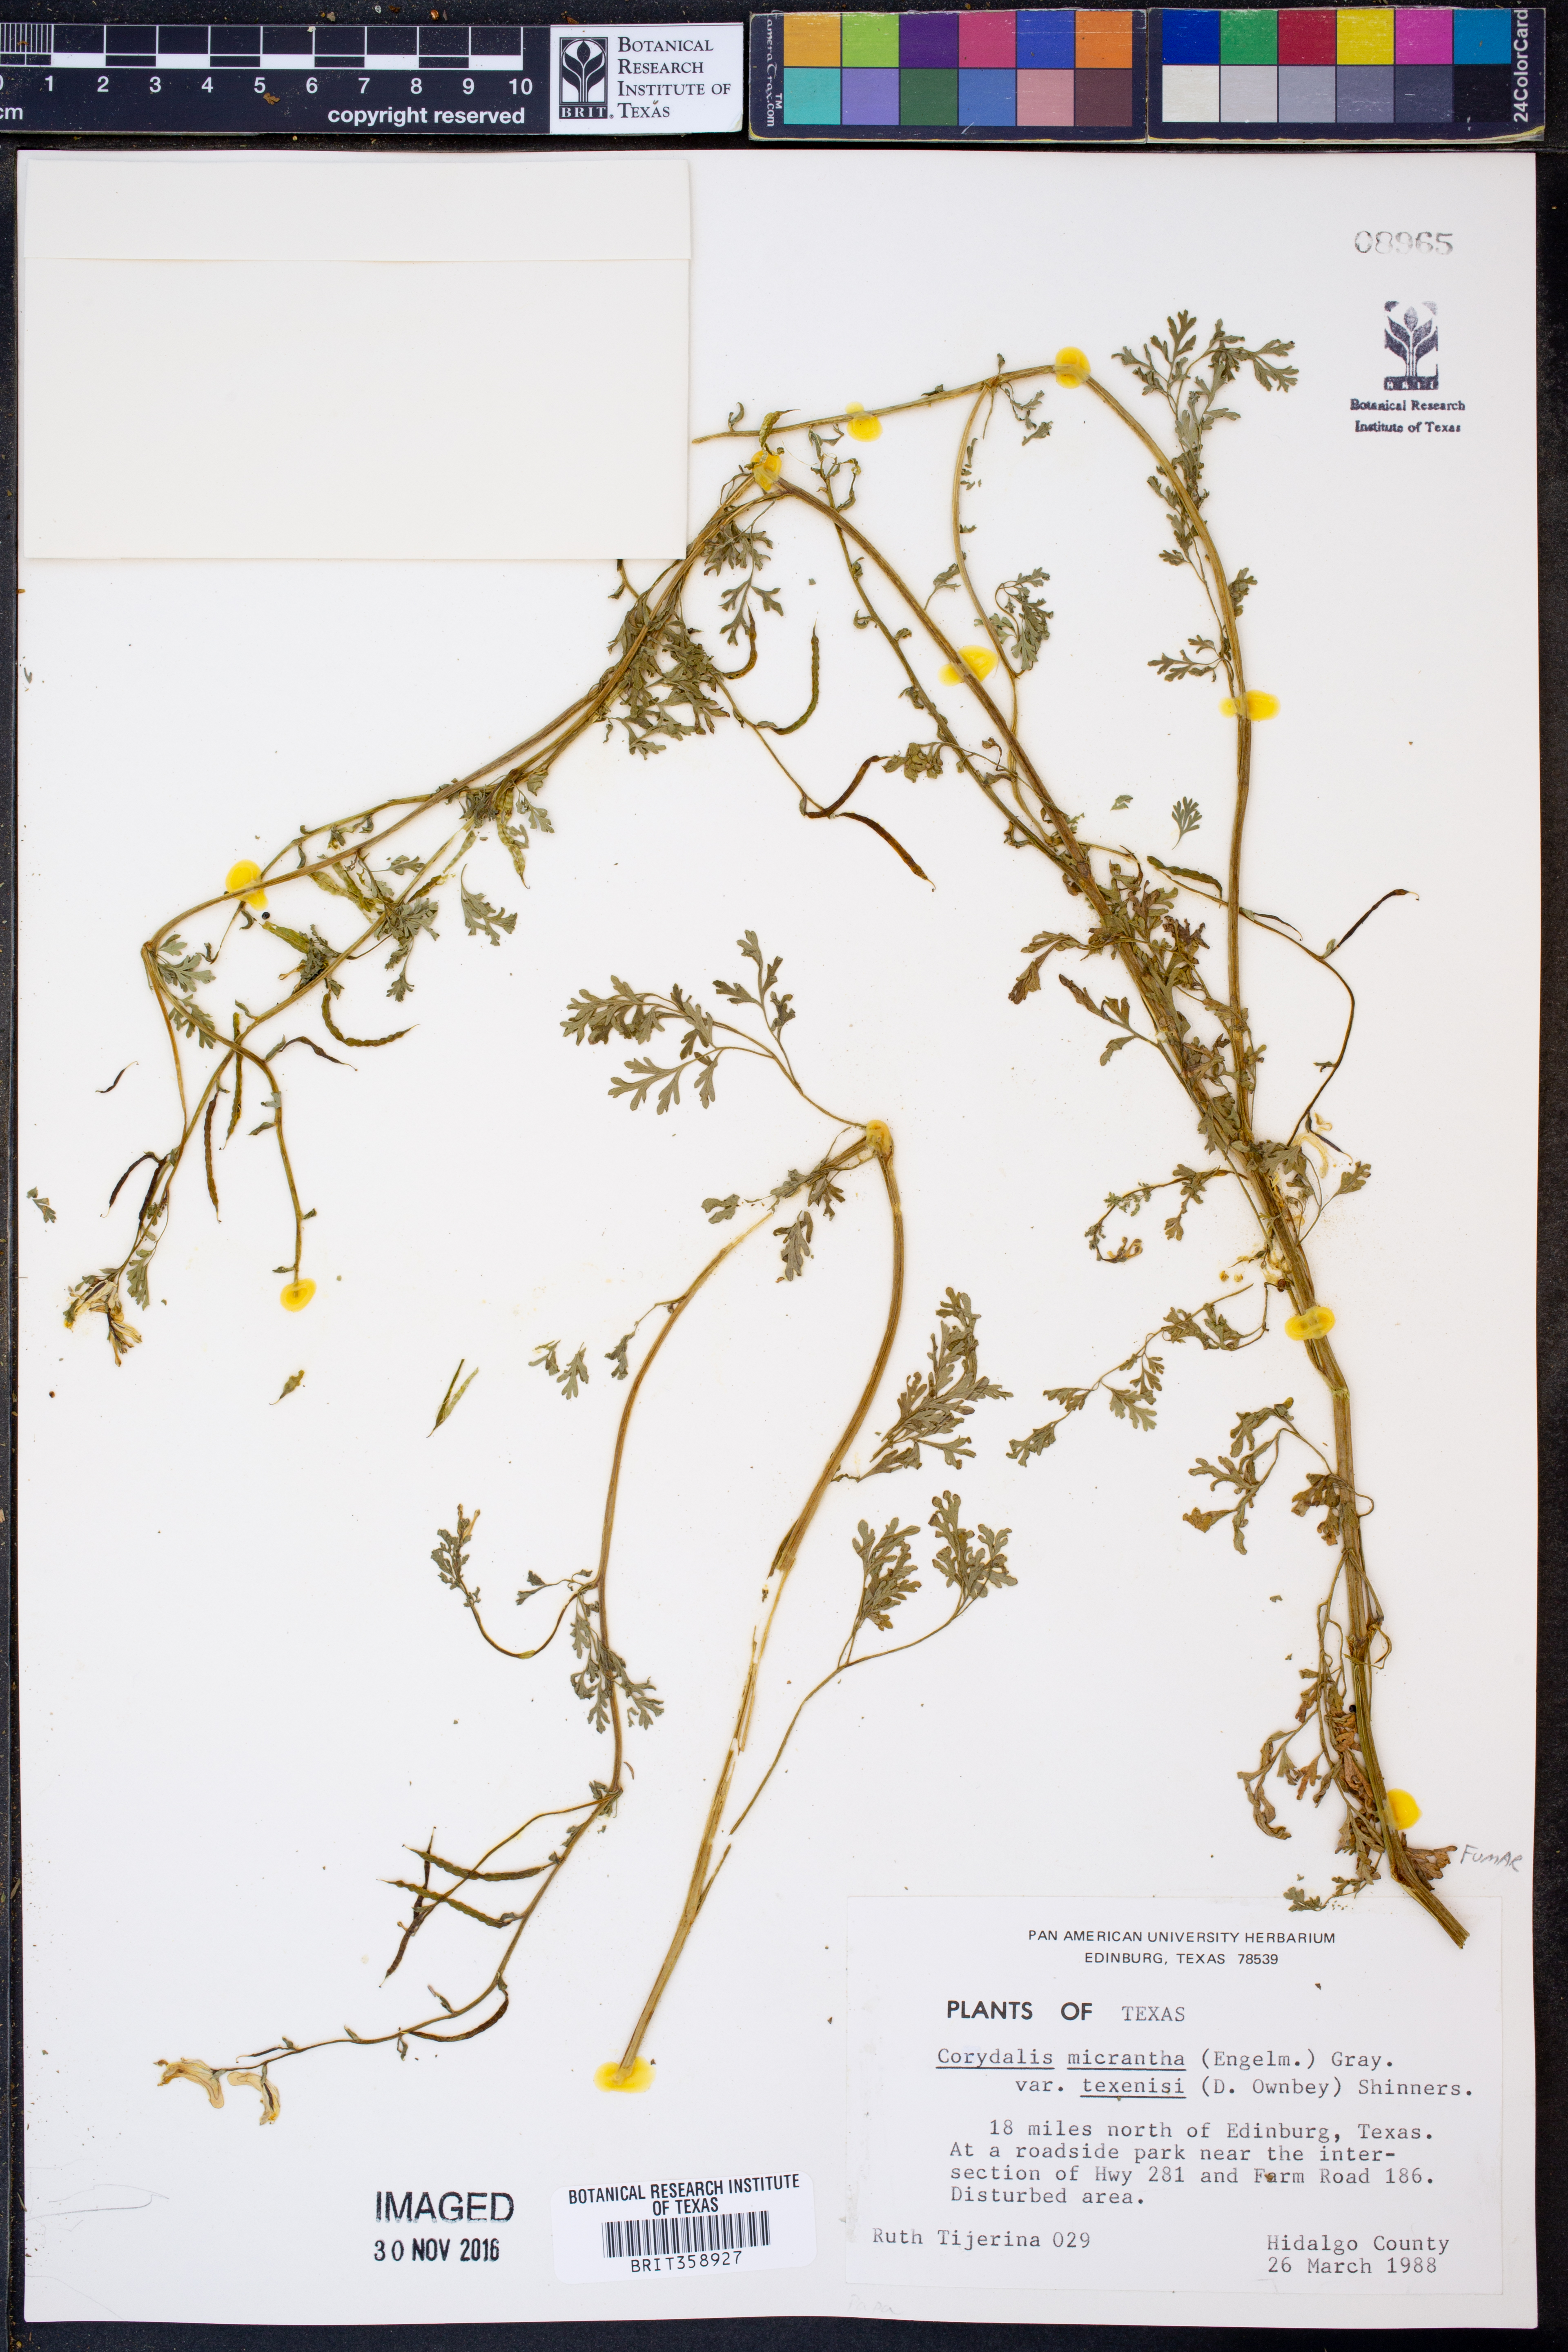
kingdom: Plantae
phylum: Tracheophyta
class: Magnoliopsida
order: Ranunculales
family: Papaveraceae
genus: Corydalis
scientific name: Corydalis micrantha
